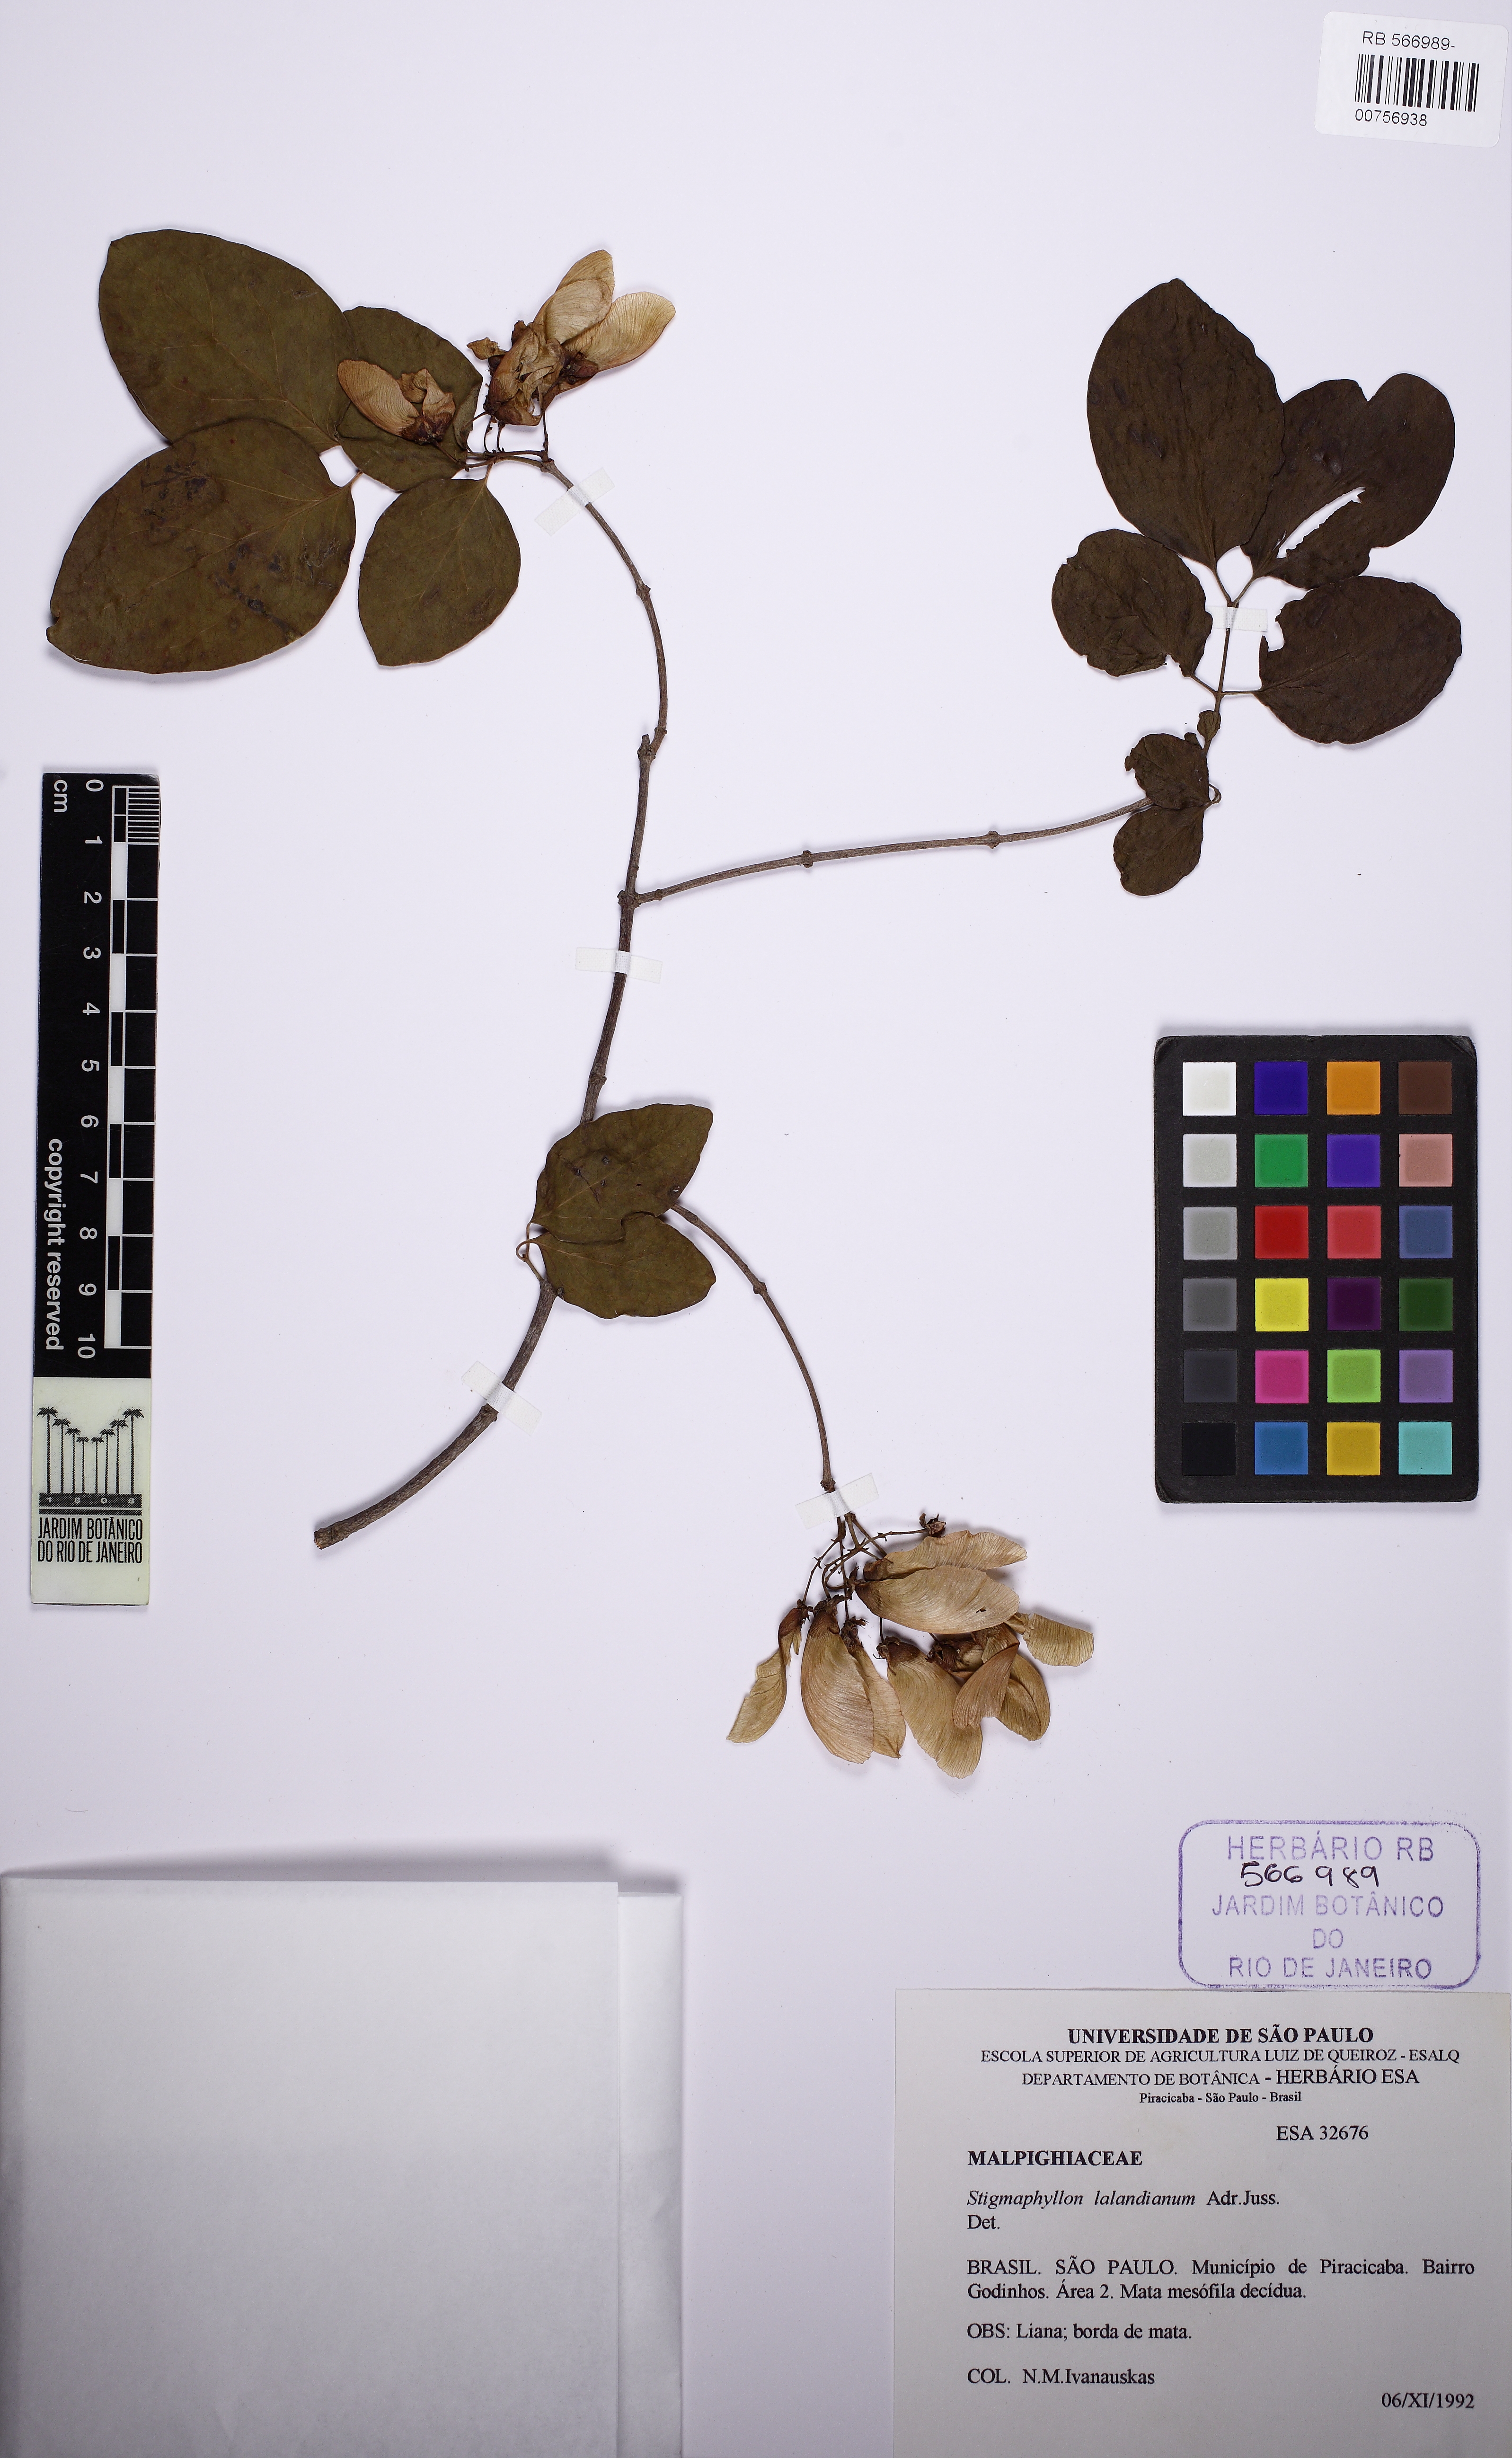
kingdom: Plantae
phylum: Tracheophyta
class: Magnoliopsida
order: Malpighiales
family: Malpighiaceae
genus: Stigmaphyllon
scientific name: Stigmaphyllon lalandianum
